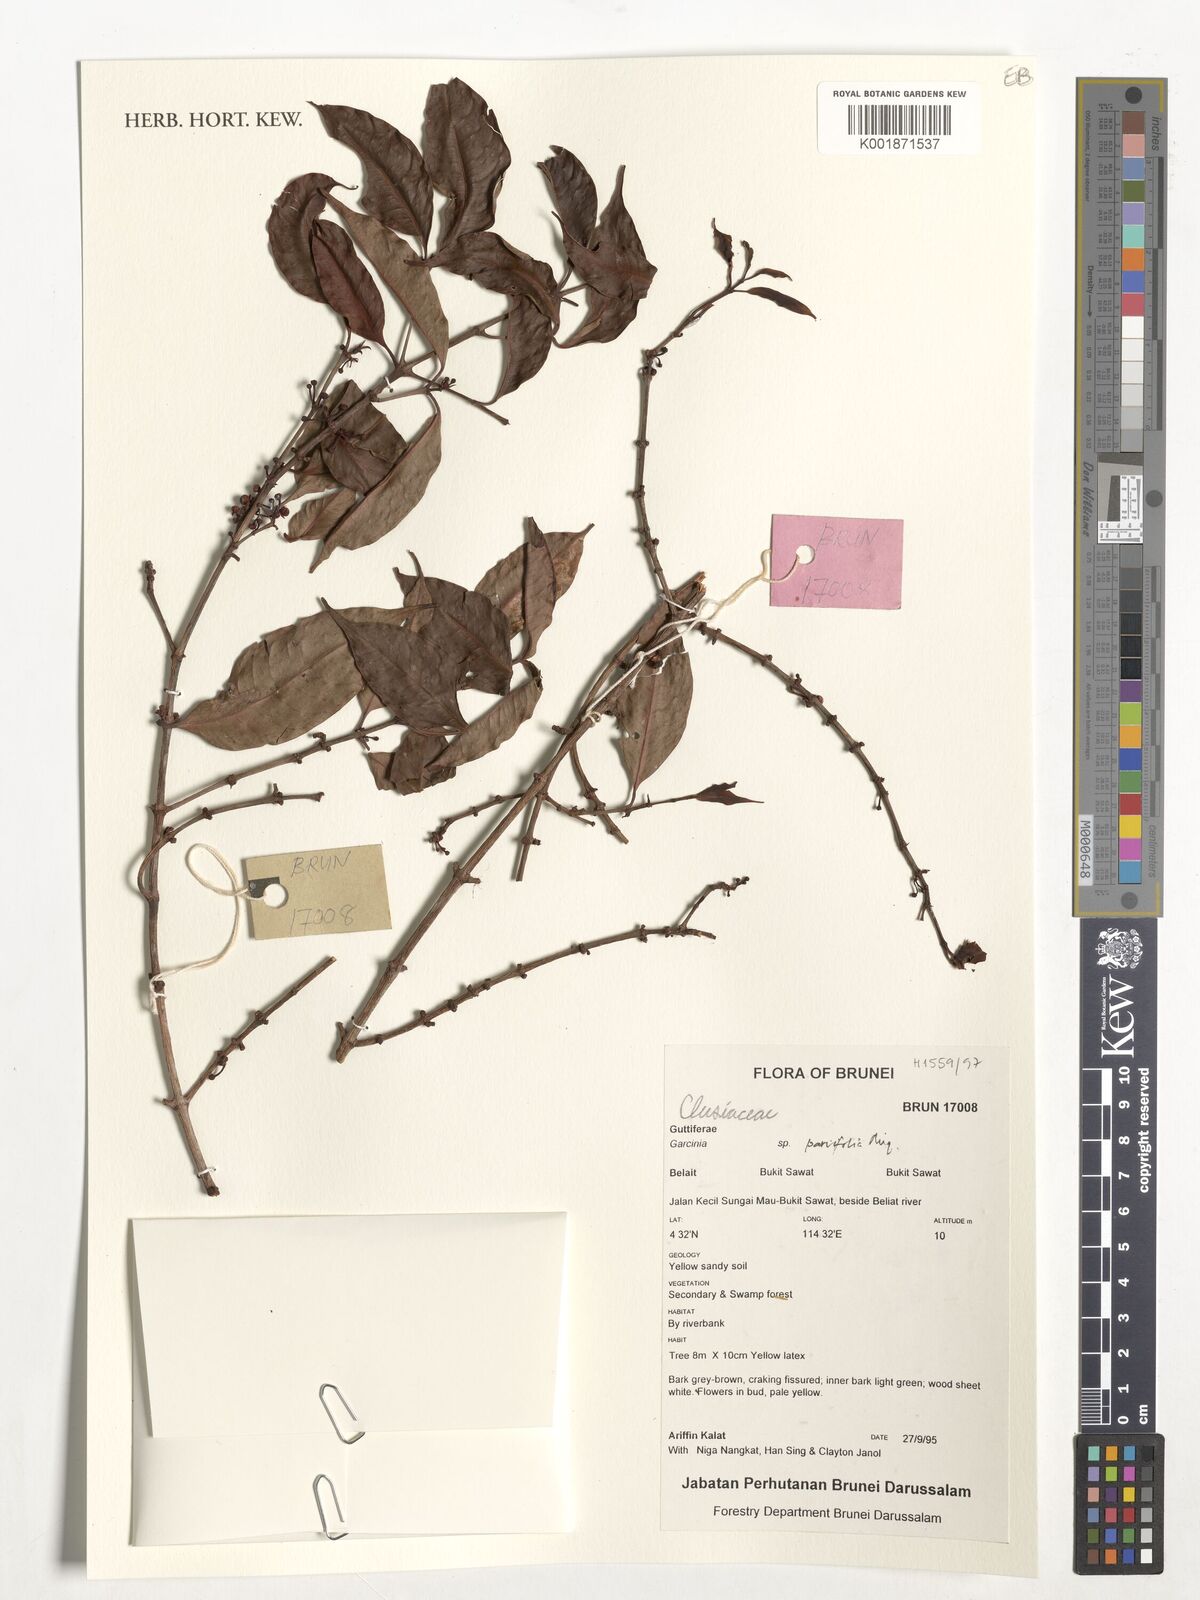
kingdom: Plantae
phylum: Tracheophyta
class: Magnoliopsida
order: Malpighiales
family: Clusiaceae
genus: Garcinia
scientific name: Garcinia parvifolia
